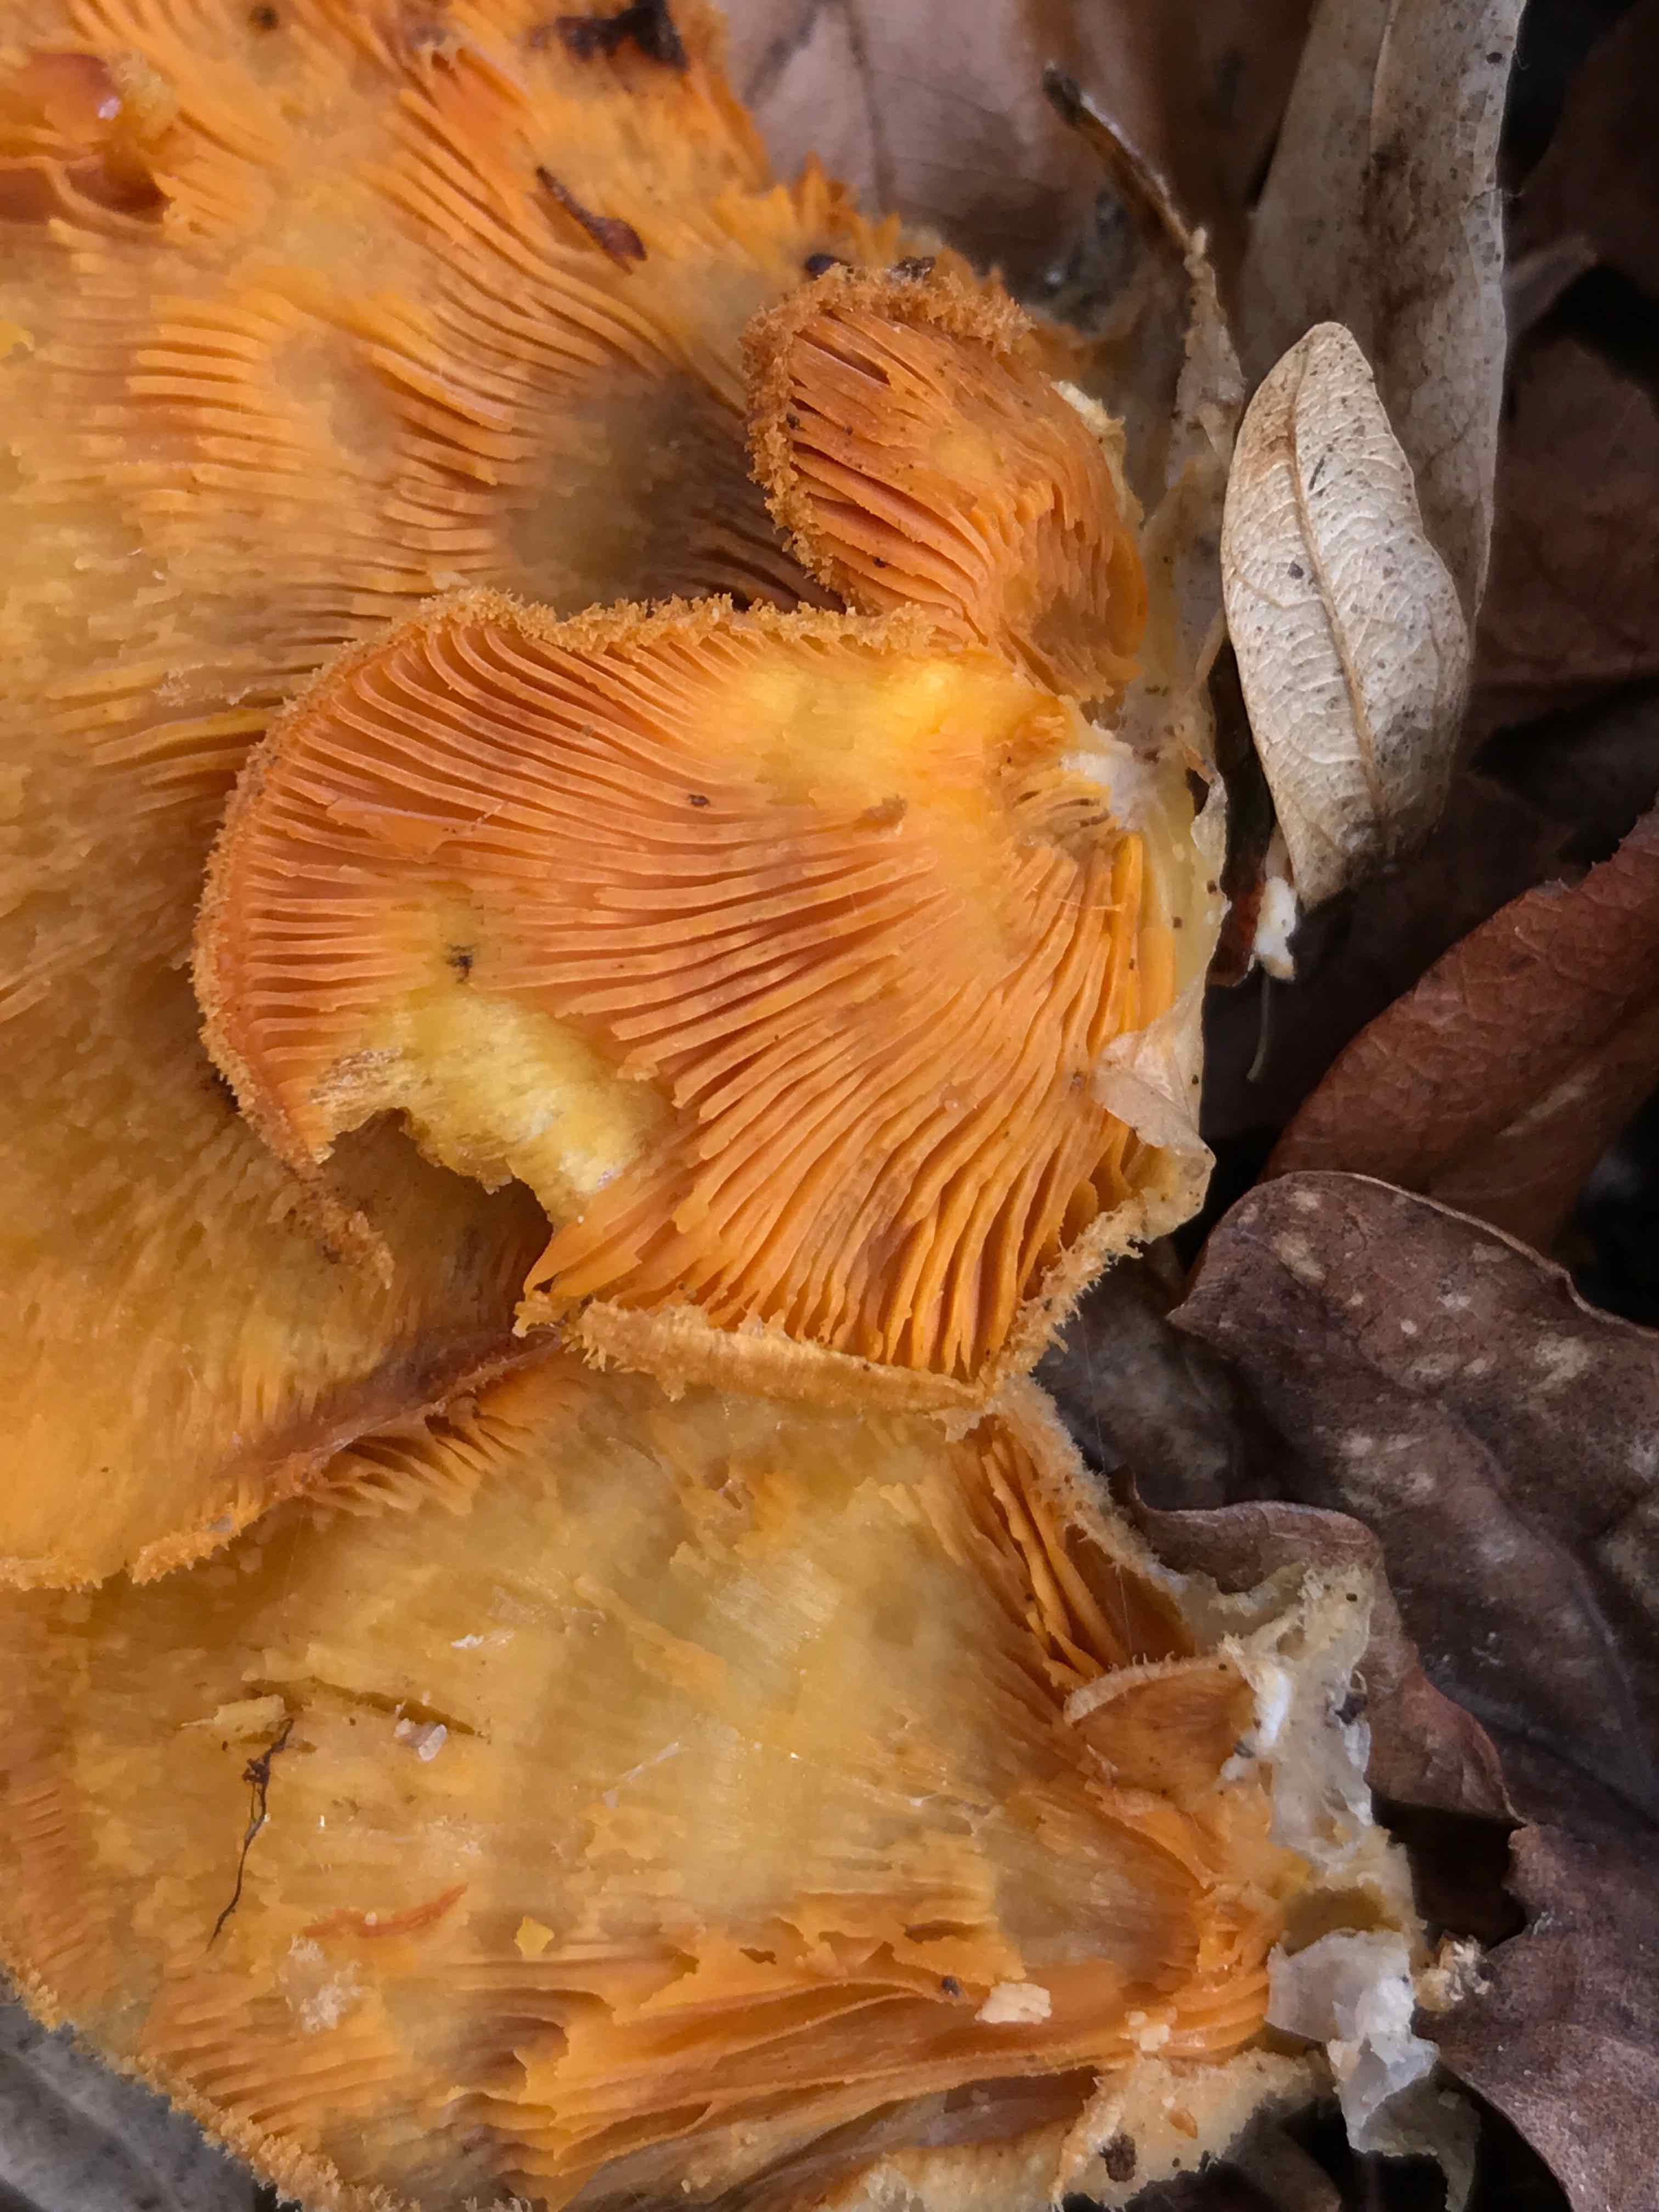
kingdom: Fungi
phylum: Basidiomycota
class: Agaricomycetes
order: Agaricales
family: Phyllotopsidaceae
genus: Phyllotopsis
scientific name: Phyllotopsis nidulans
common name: okkerblad
